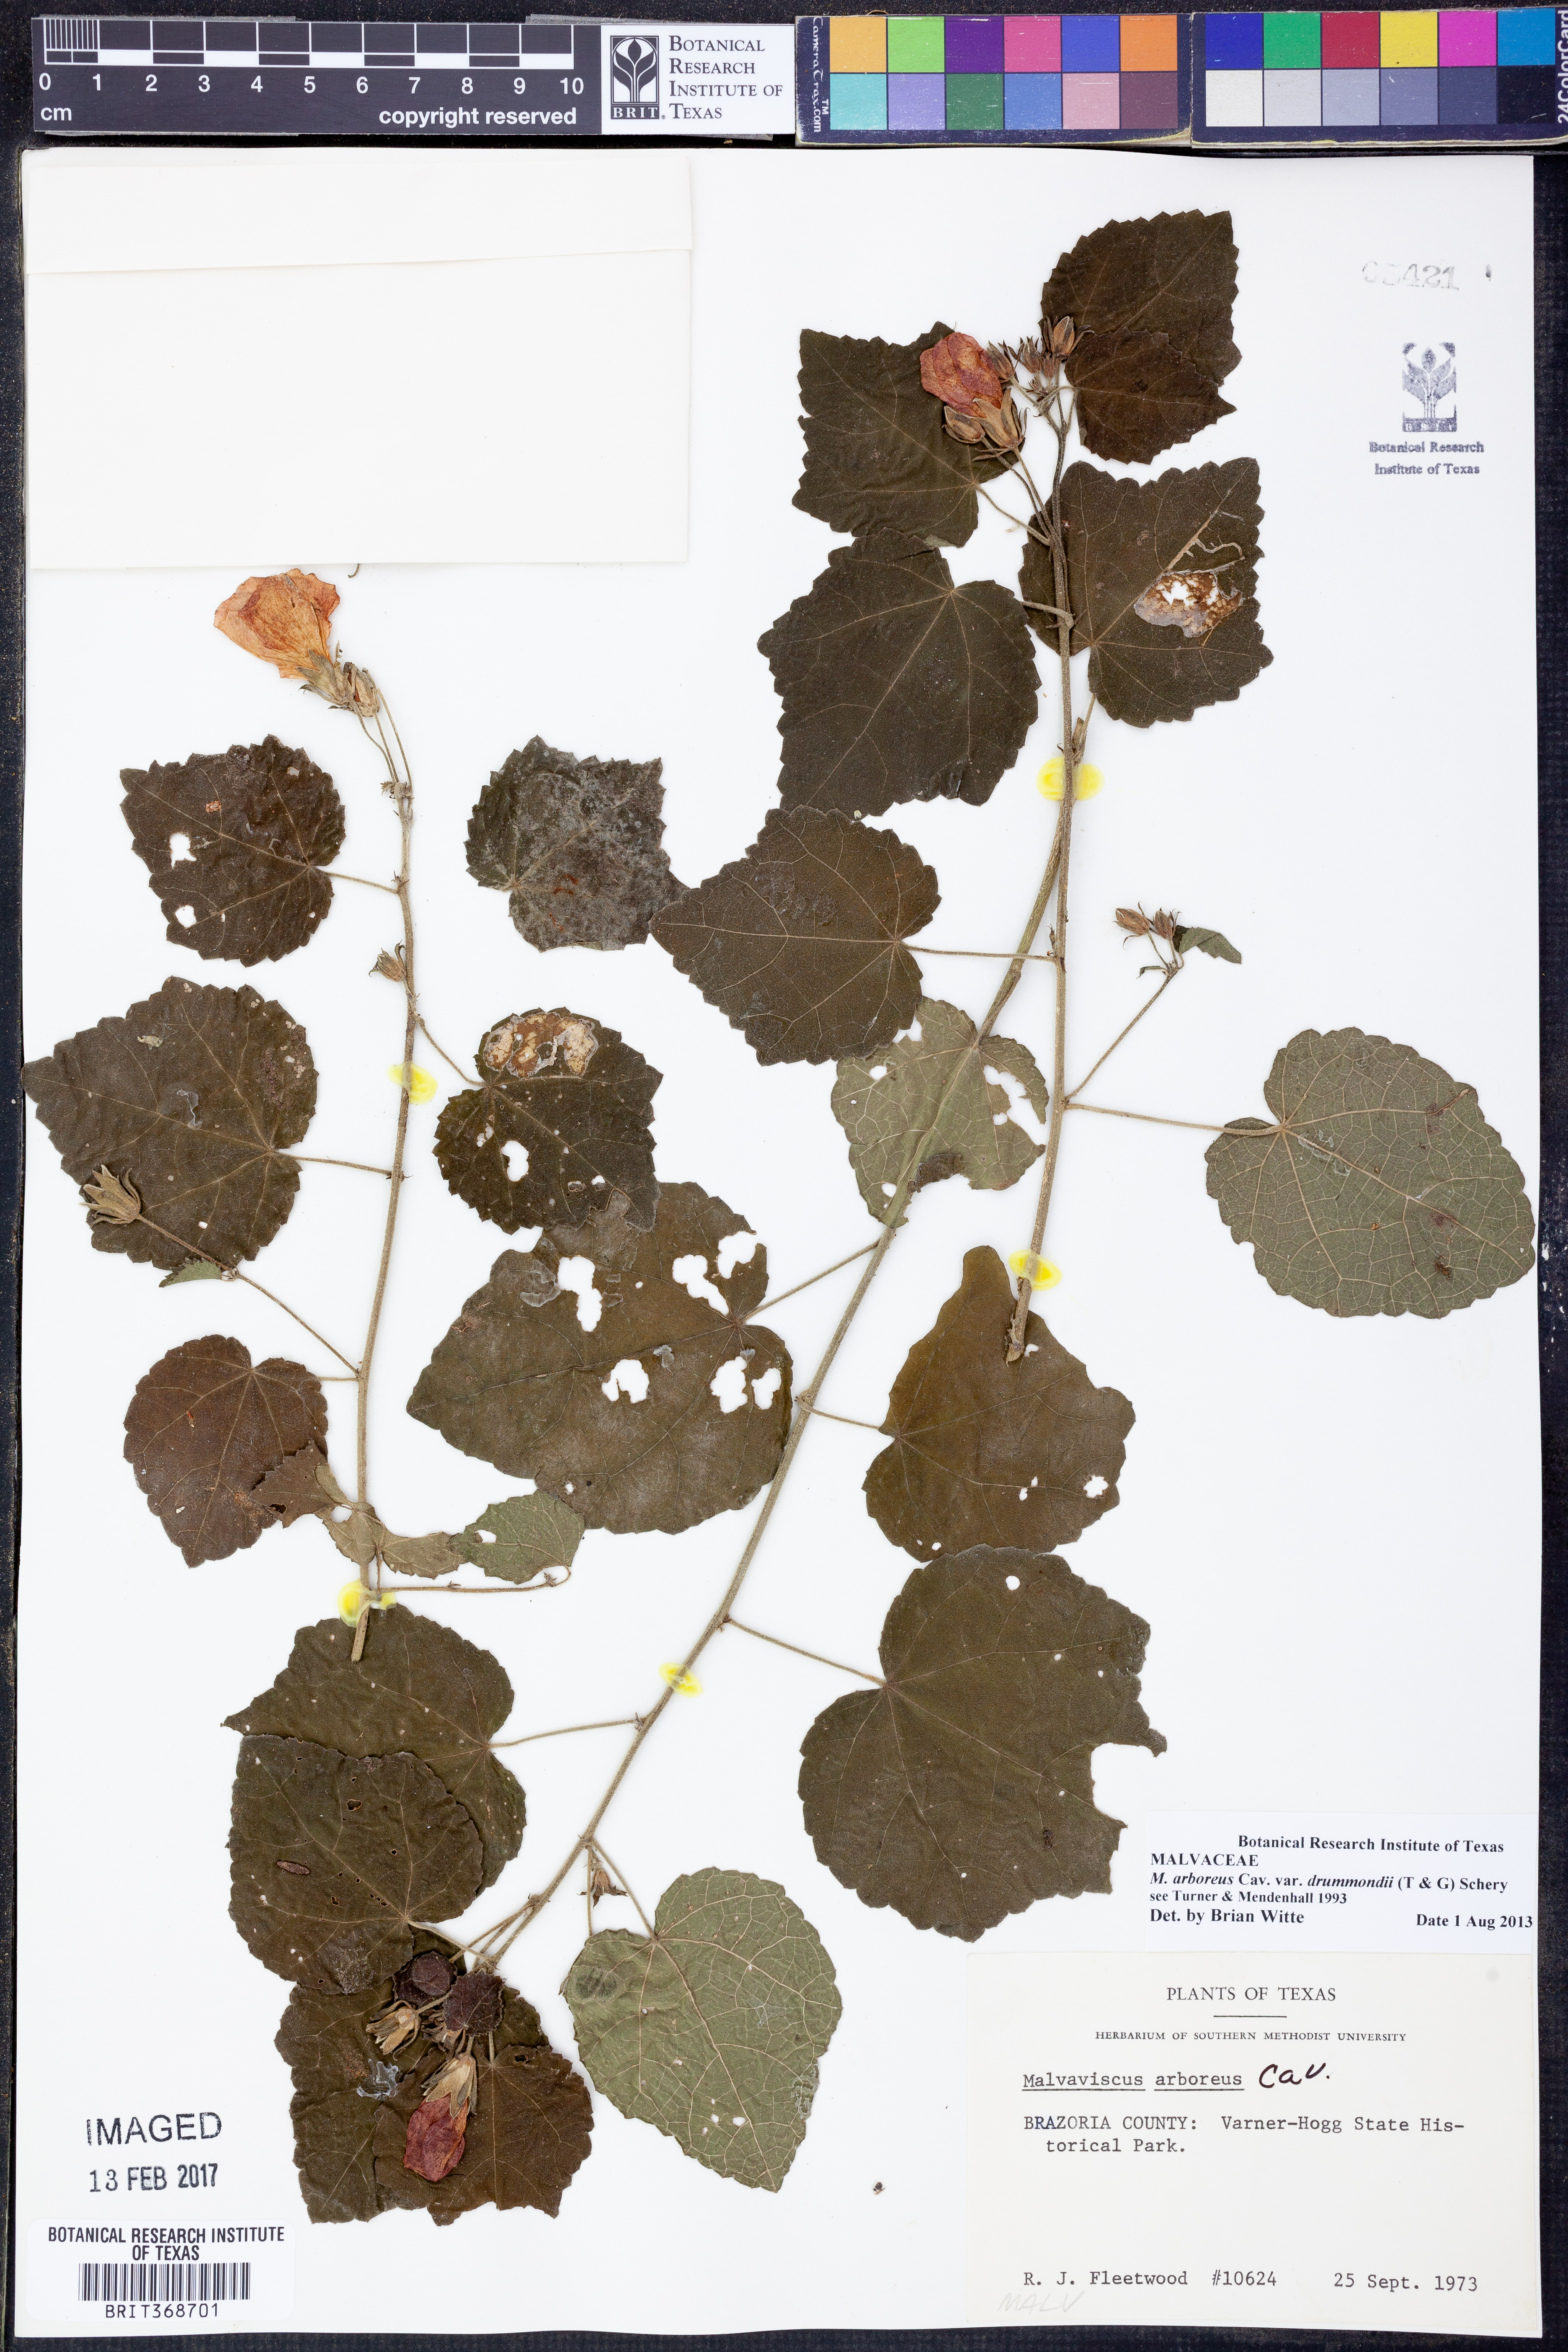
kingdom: Plantae
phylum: Tracheophyta
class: Magnoliopsida
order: Malvales
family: Malvaceae
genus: Malvaviscus
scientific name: Malvaviscus arboreus
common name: Wax mallow
